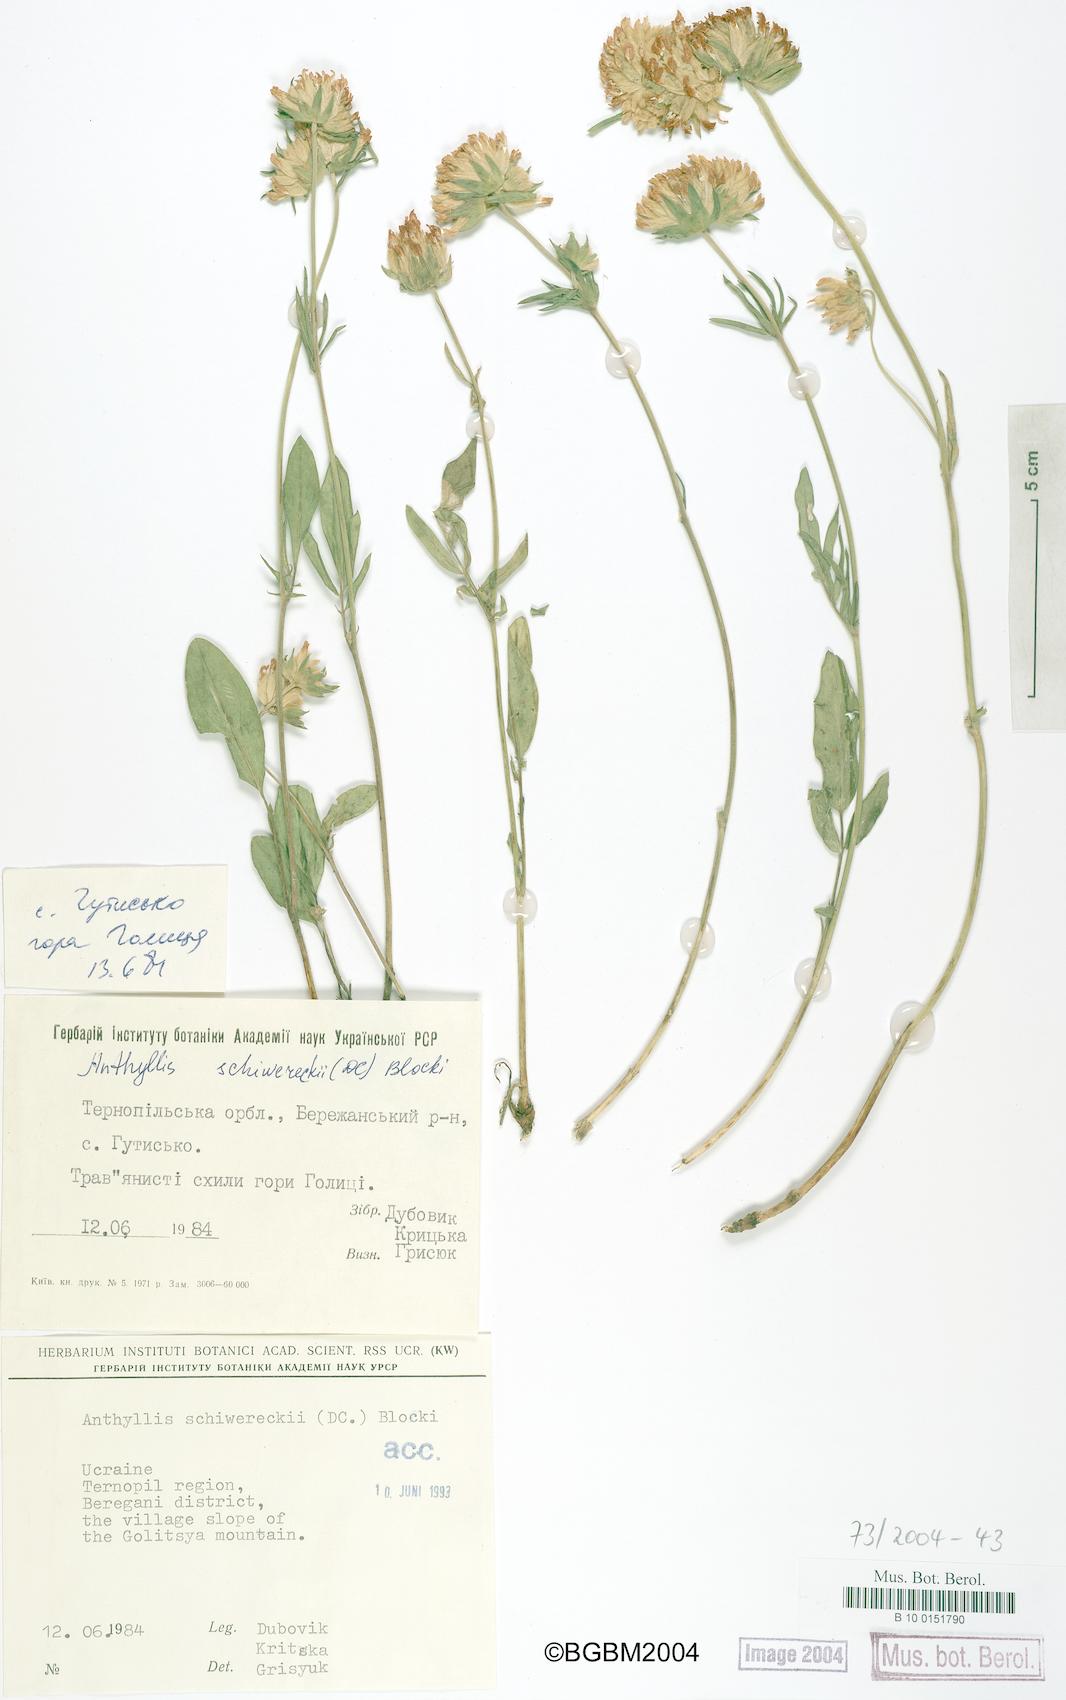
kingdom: Plantae
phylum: Tracheophyta
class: Magnoliopsida
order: Fabales
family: Fabaceae
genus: Anthyllis
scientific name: Anthyllis vulneraria
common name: Kidney vetch
